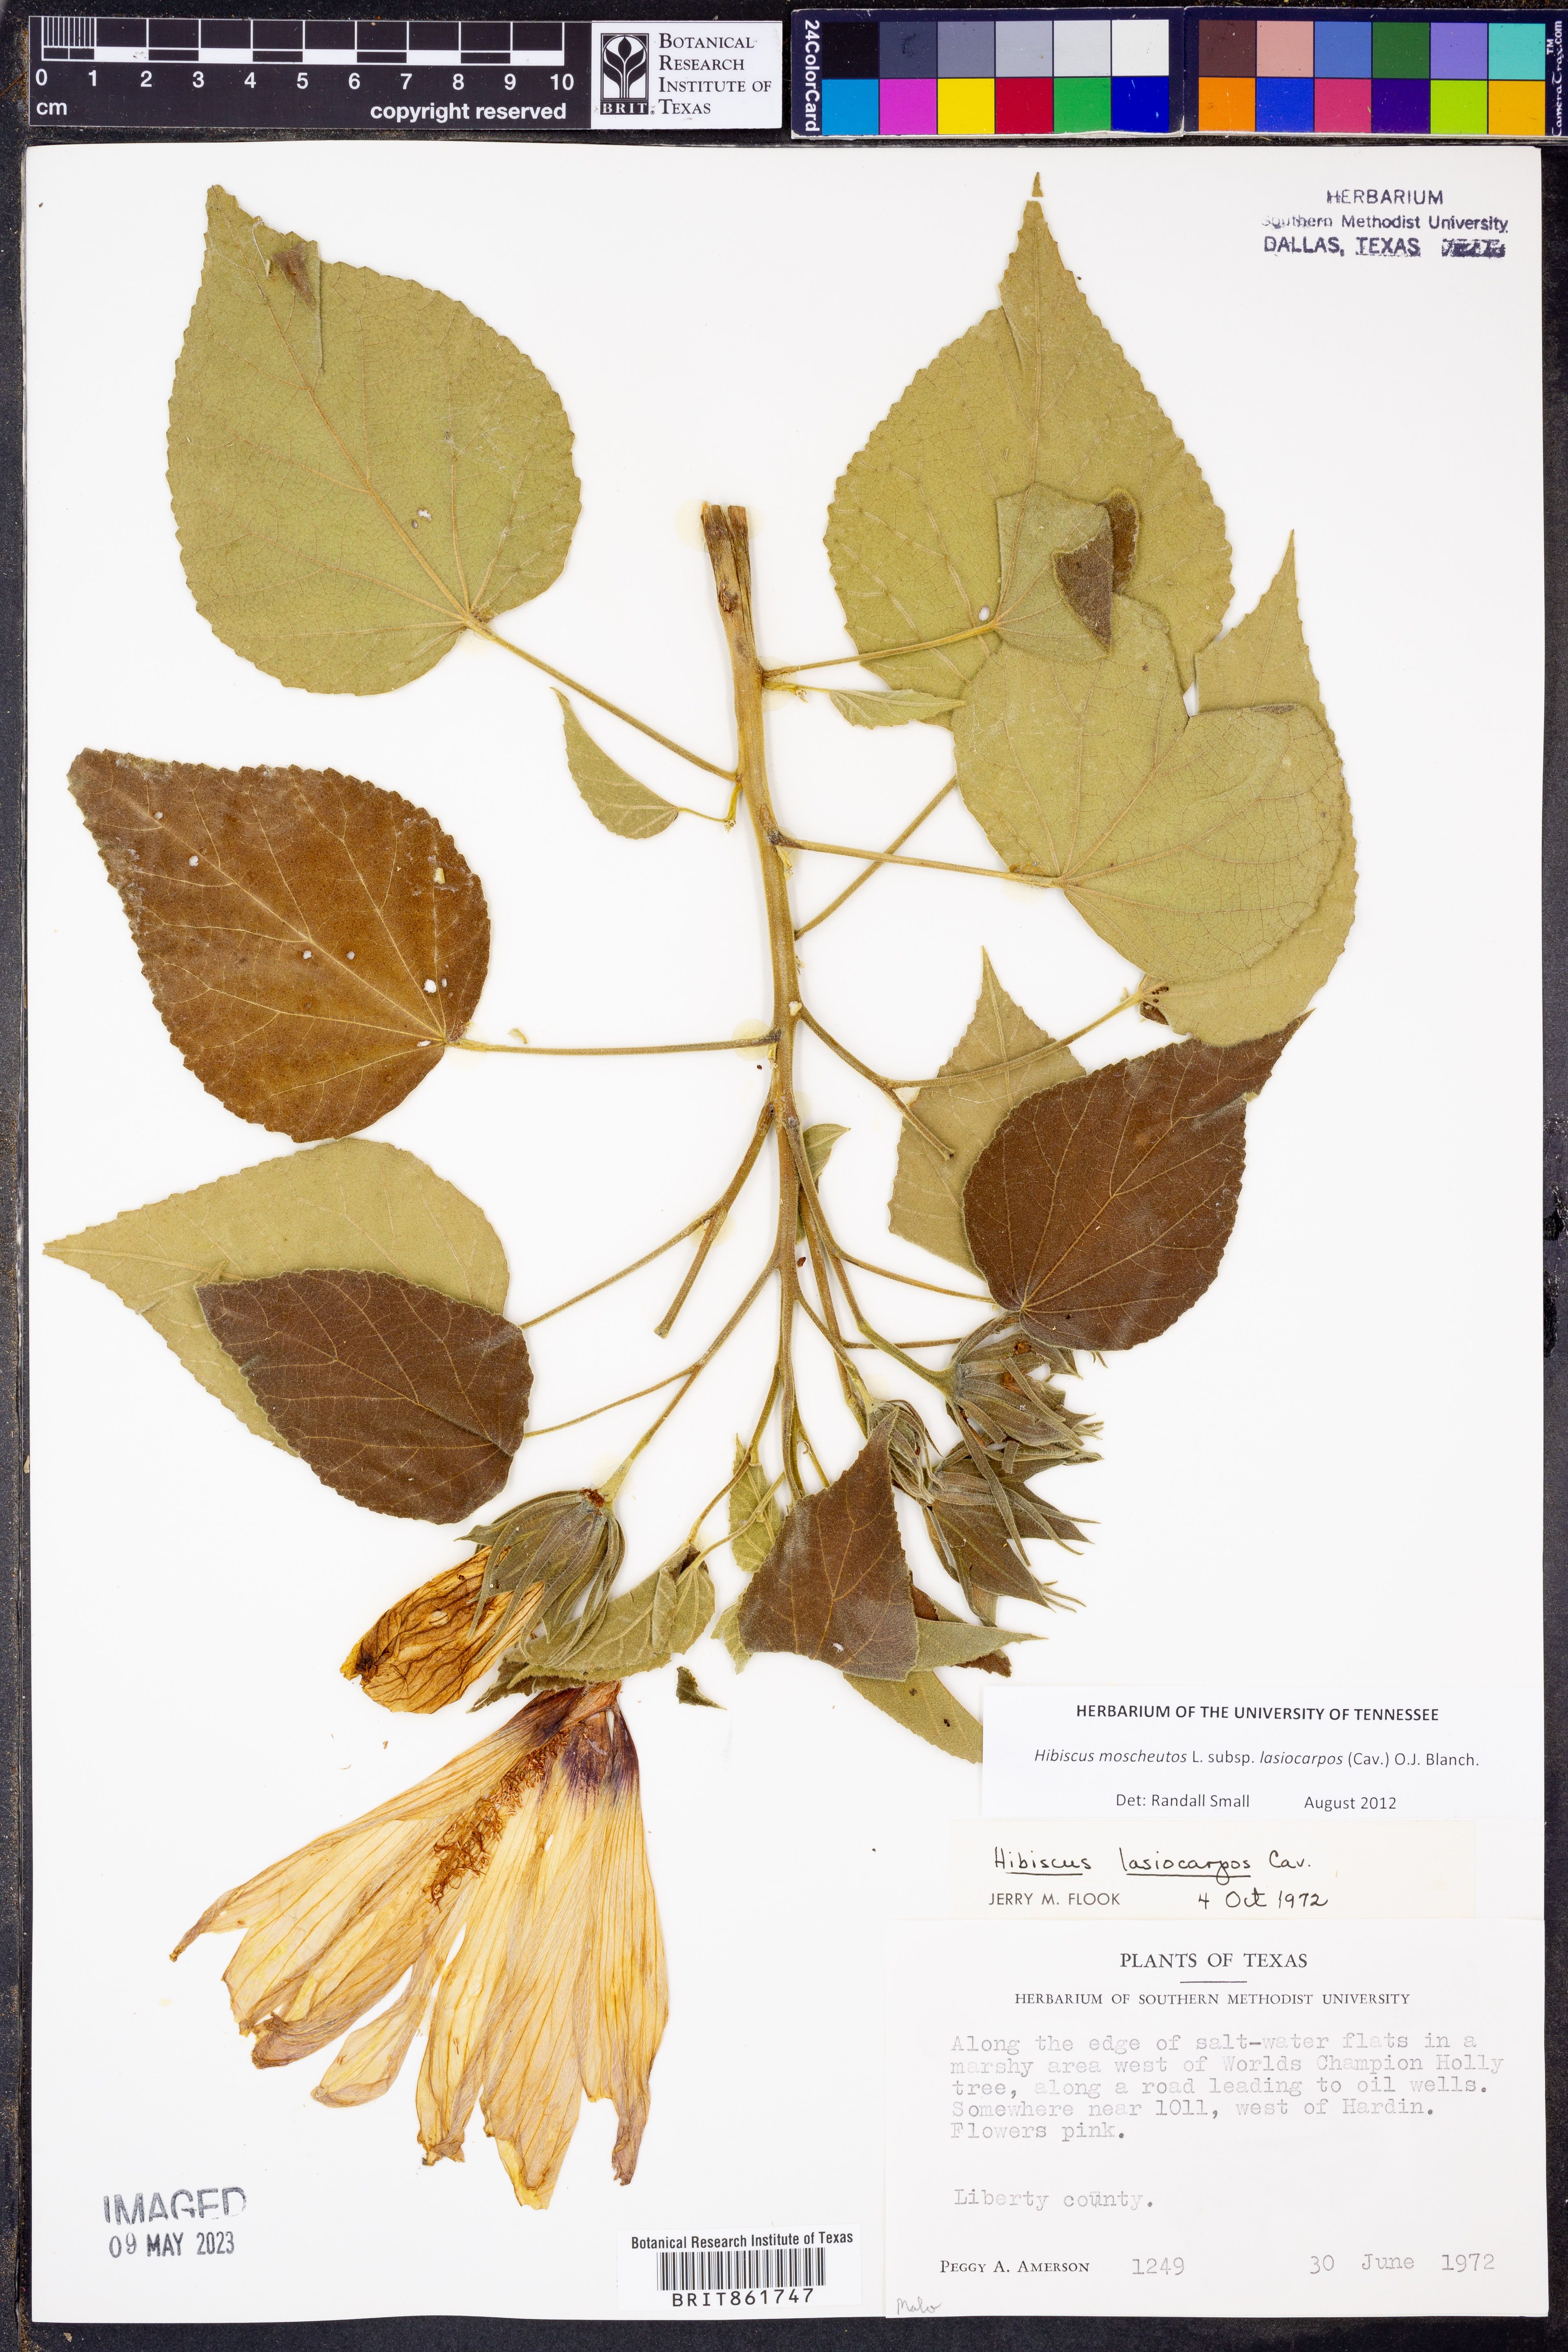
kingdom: Plantae
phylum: Tracheophyta
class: Magnoliopsida
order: Malvales
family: Malvaceae
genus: Hibiscus
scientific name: Hibiscus moscheutos
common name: Common rose-mallow
